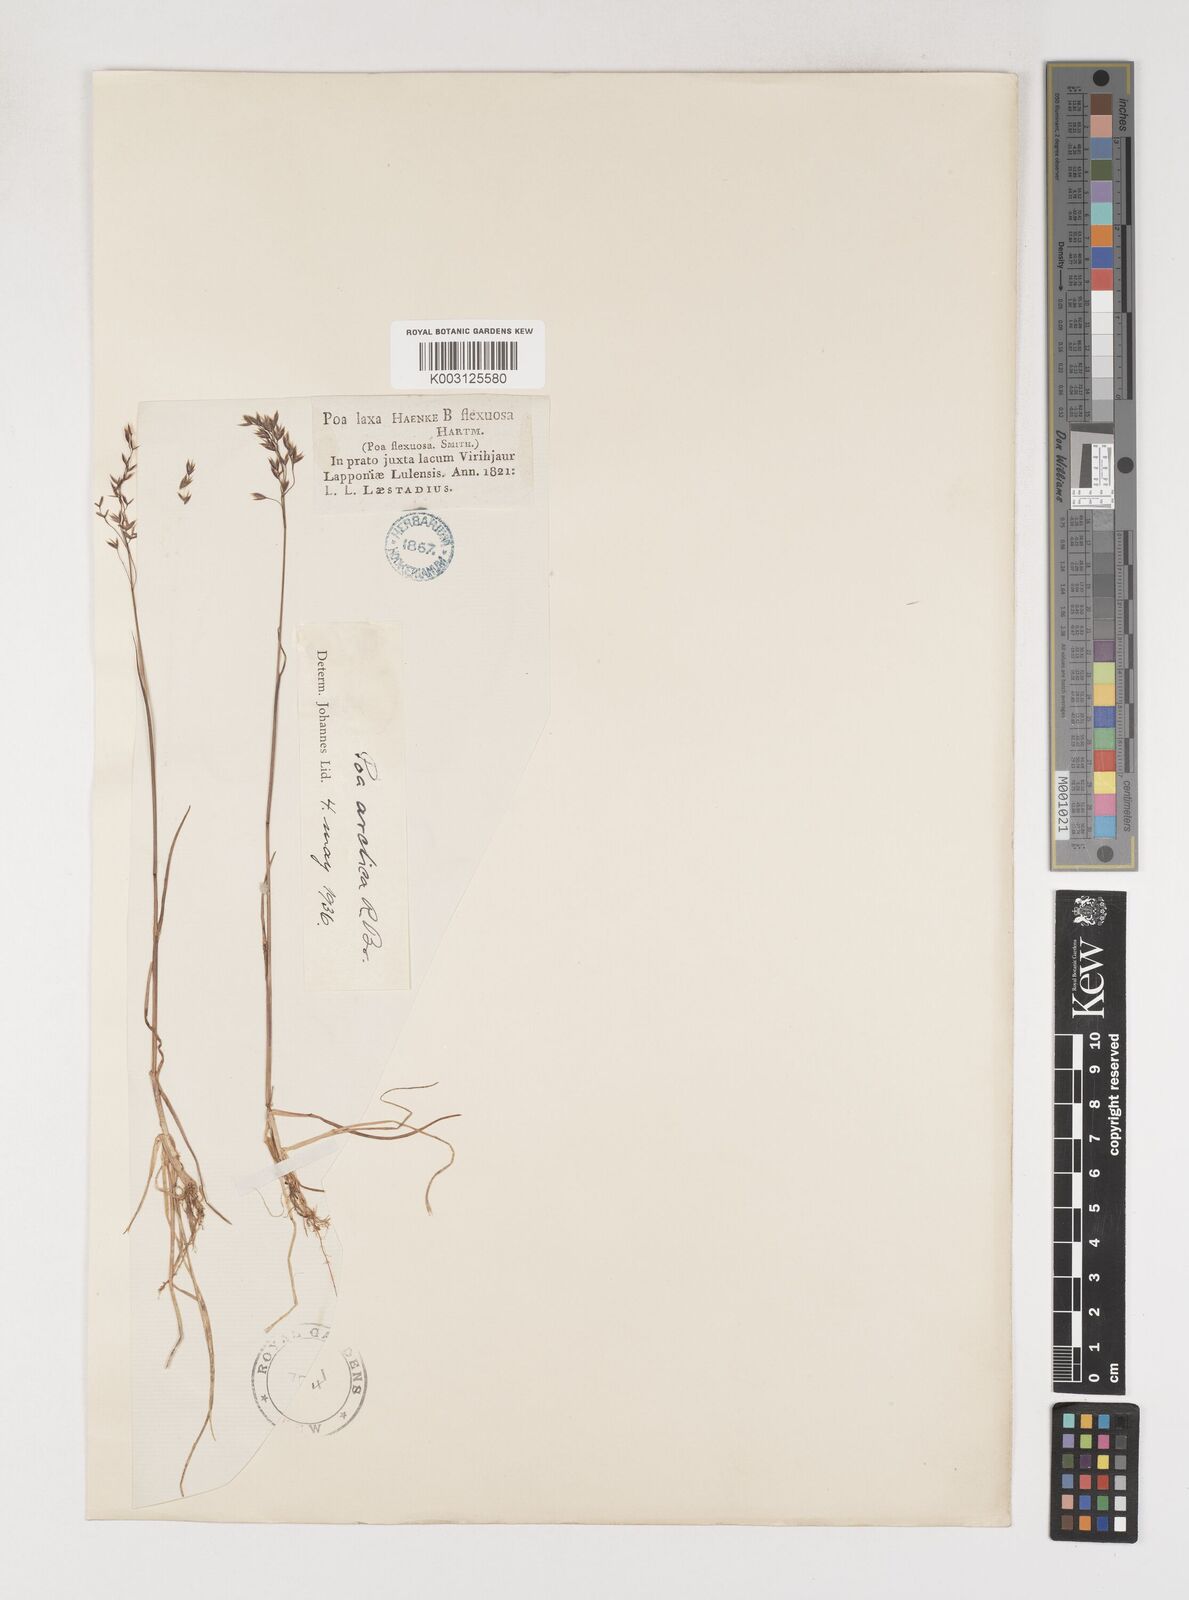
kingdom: Plantae
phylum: Tracheophyta
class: Liliopsida
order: Poales
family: Poaceae
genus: Poa
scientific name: Poa arctica
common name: Arctic bluegrass
